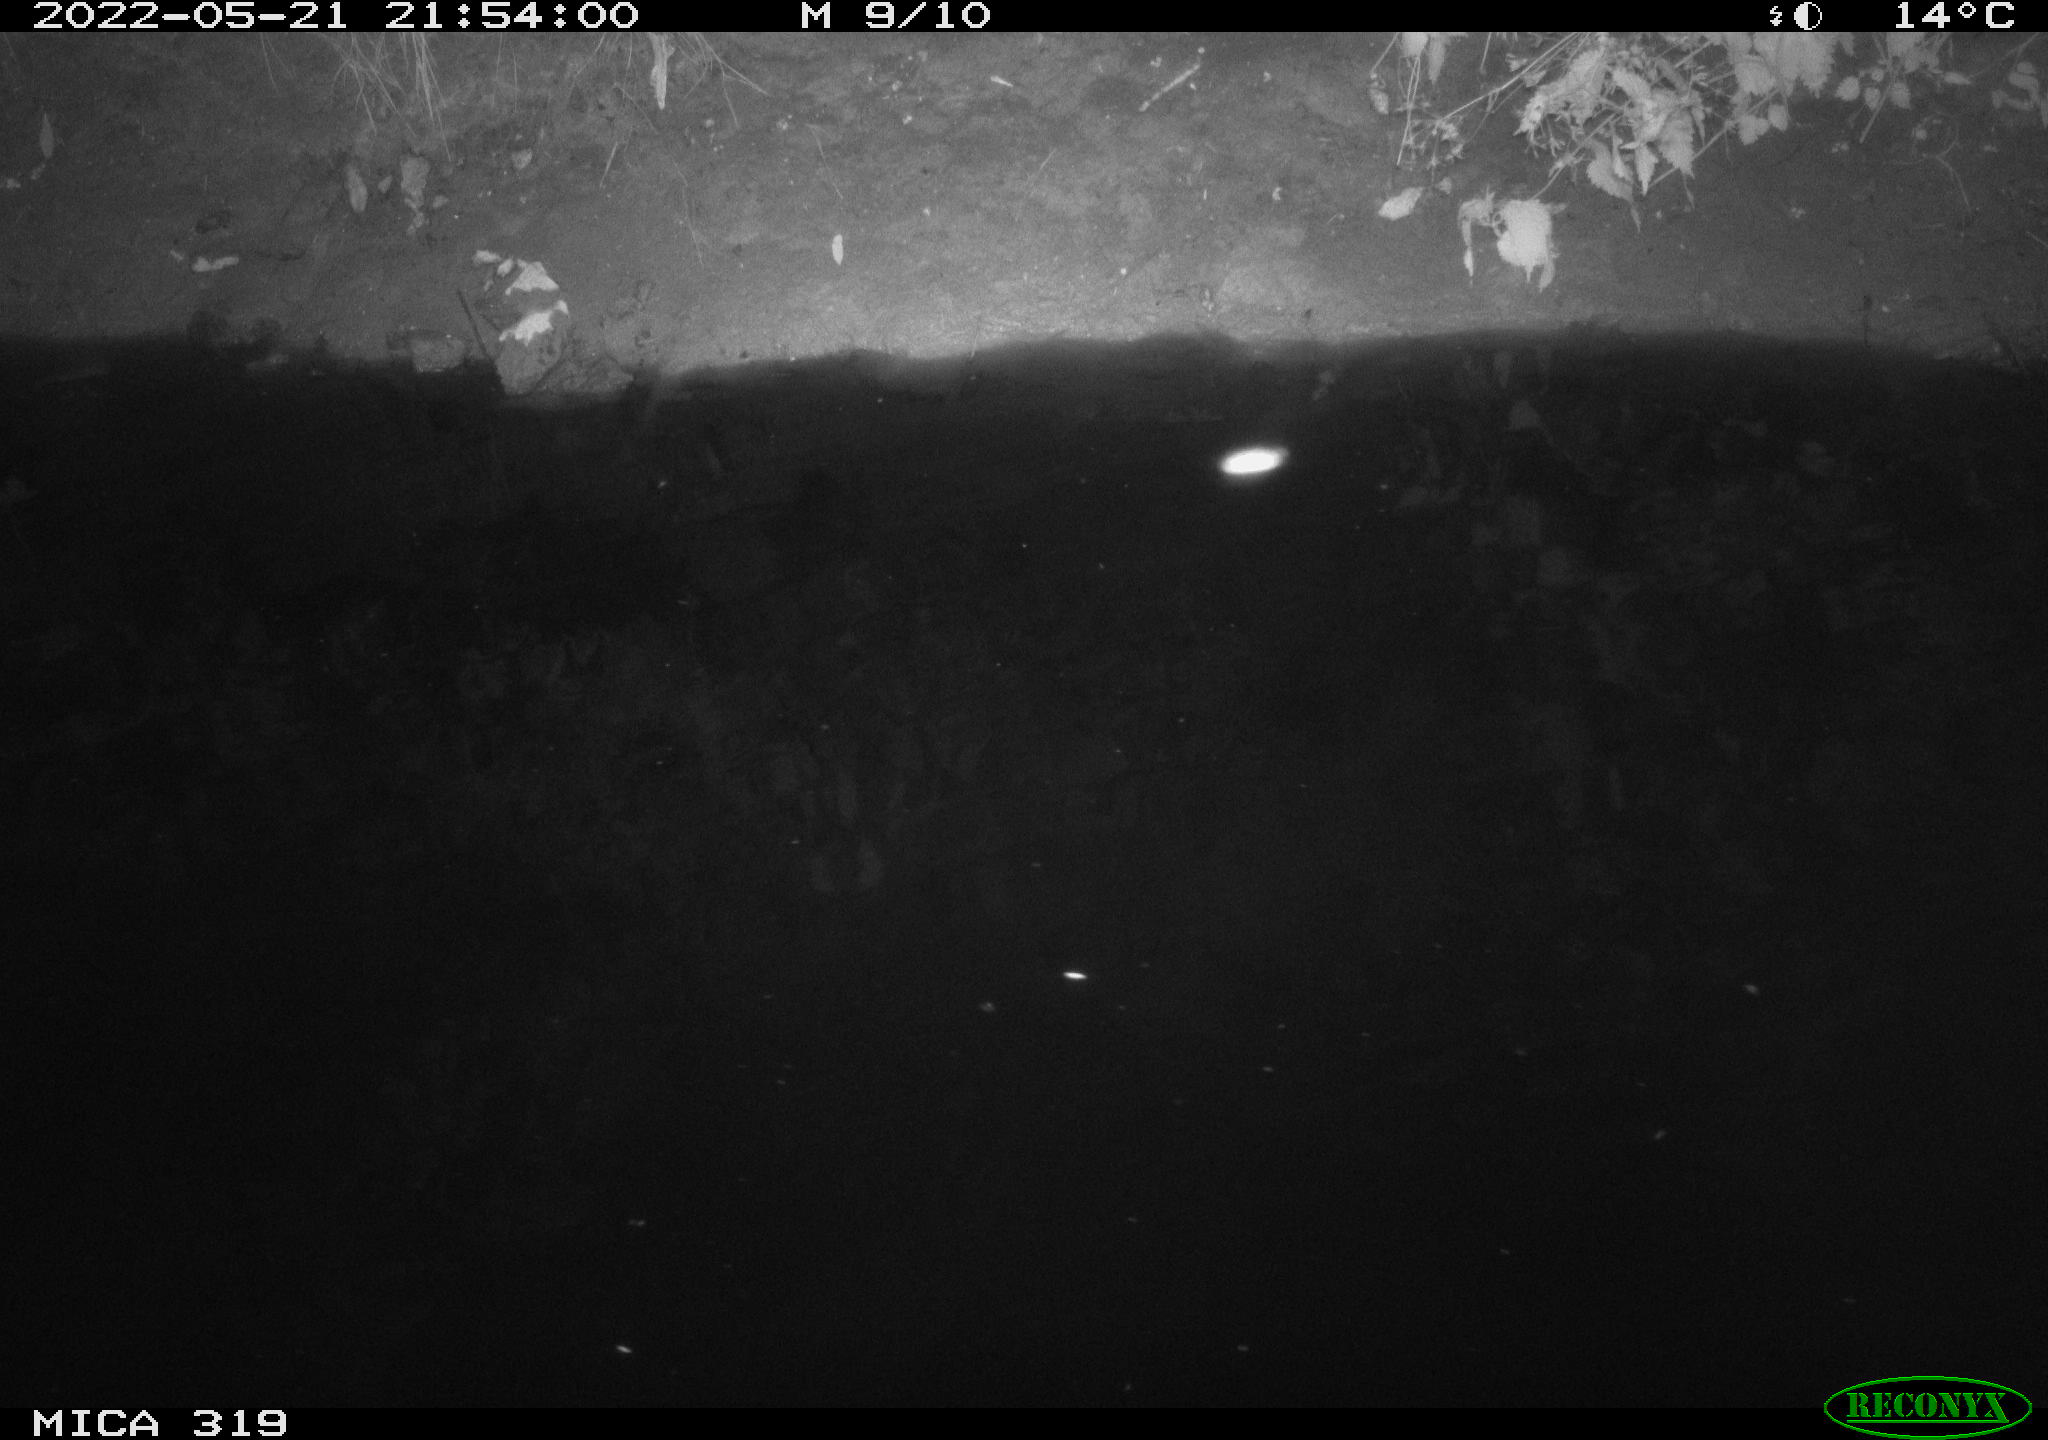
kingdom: Animalia
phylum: Chordata
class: Aves
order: Anseriformes
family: Anatidae
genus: Anas
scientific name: Anas
